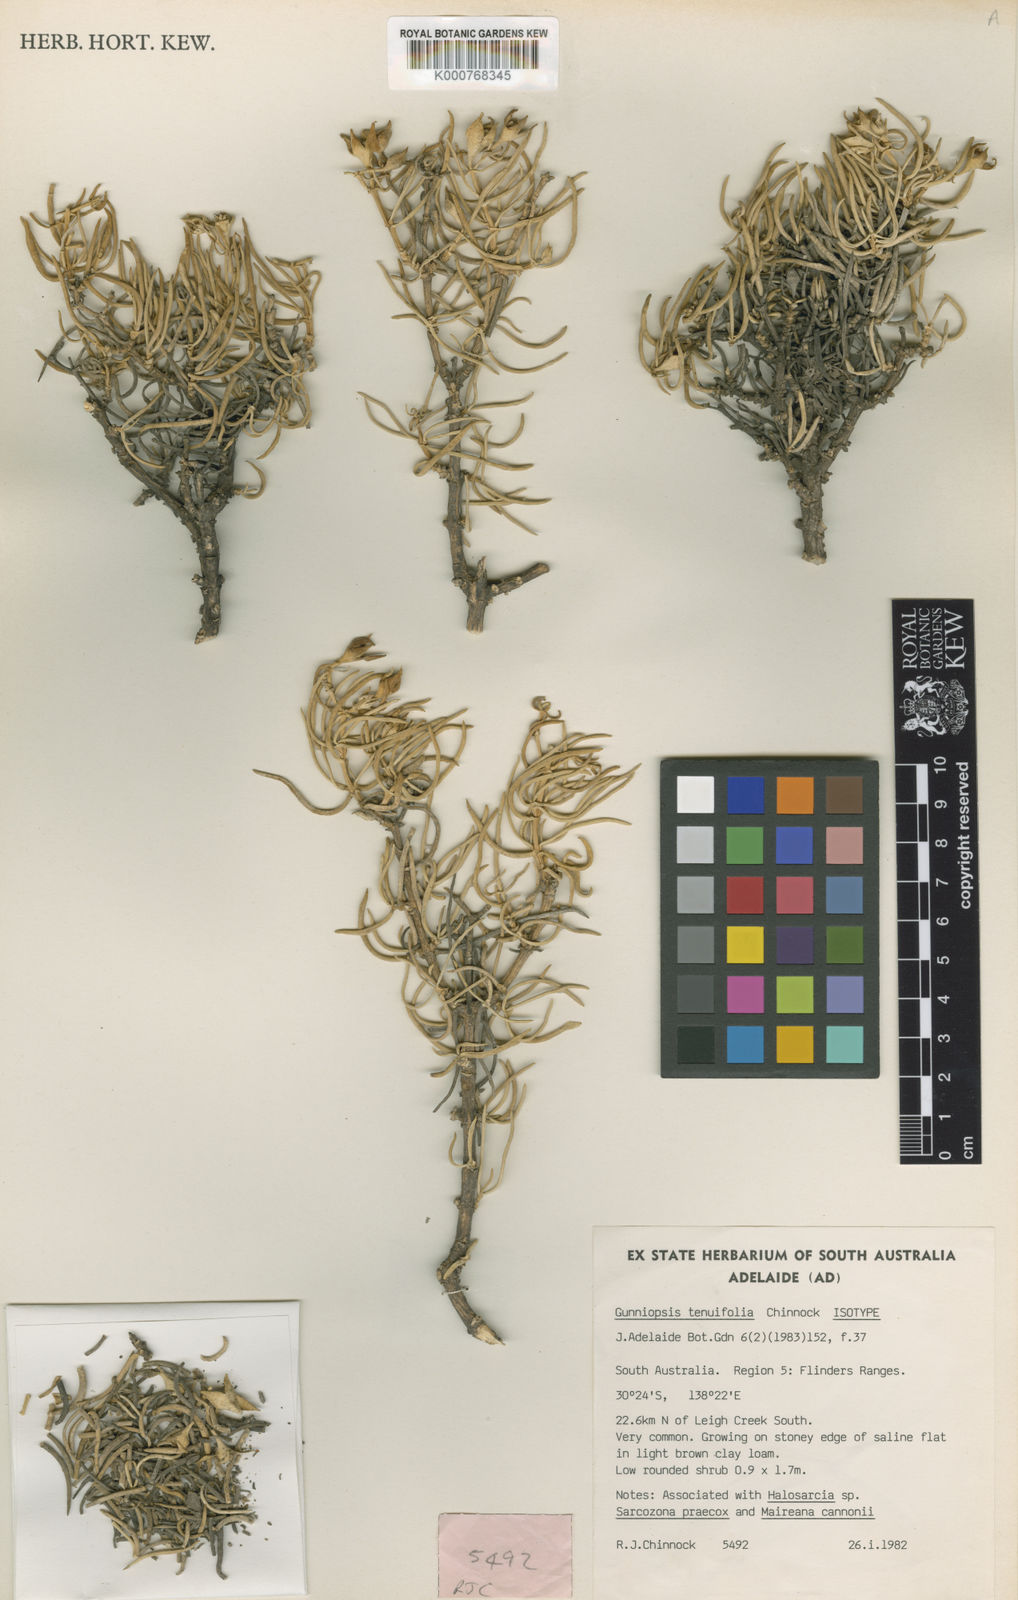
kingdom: Plantae
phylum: Tracheophyta
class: Magnoliopsida
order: Caryophyllales
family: Aizoaceae
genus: Gunniopsis
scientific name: Gunniopsis tenuifolia
